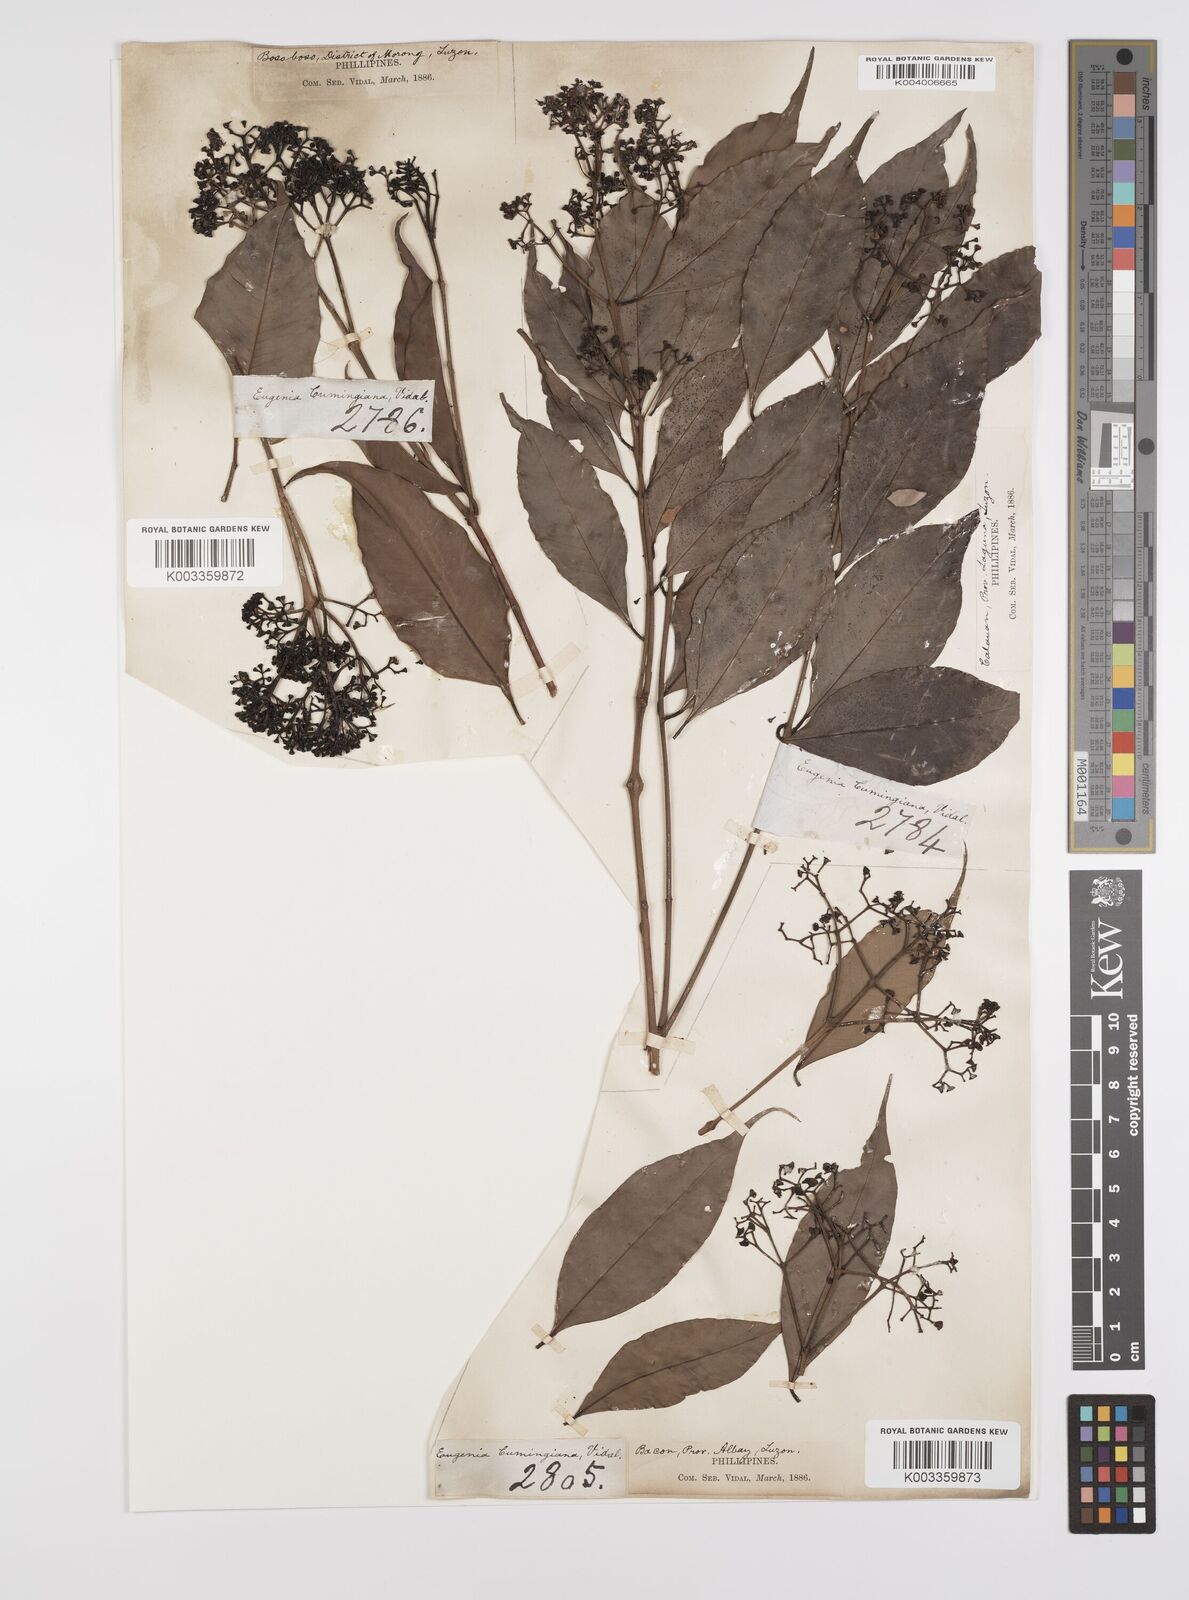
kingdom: Plantae
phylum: Tracheophyta
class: Magnoliopsida
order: Myrtales
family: Myrtaceae
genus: Syzygium
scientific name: Syzygium acuminatissimum
